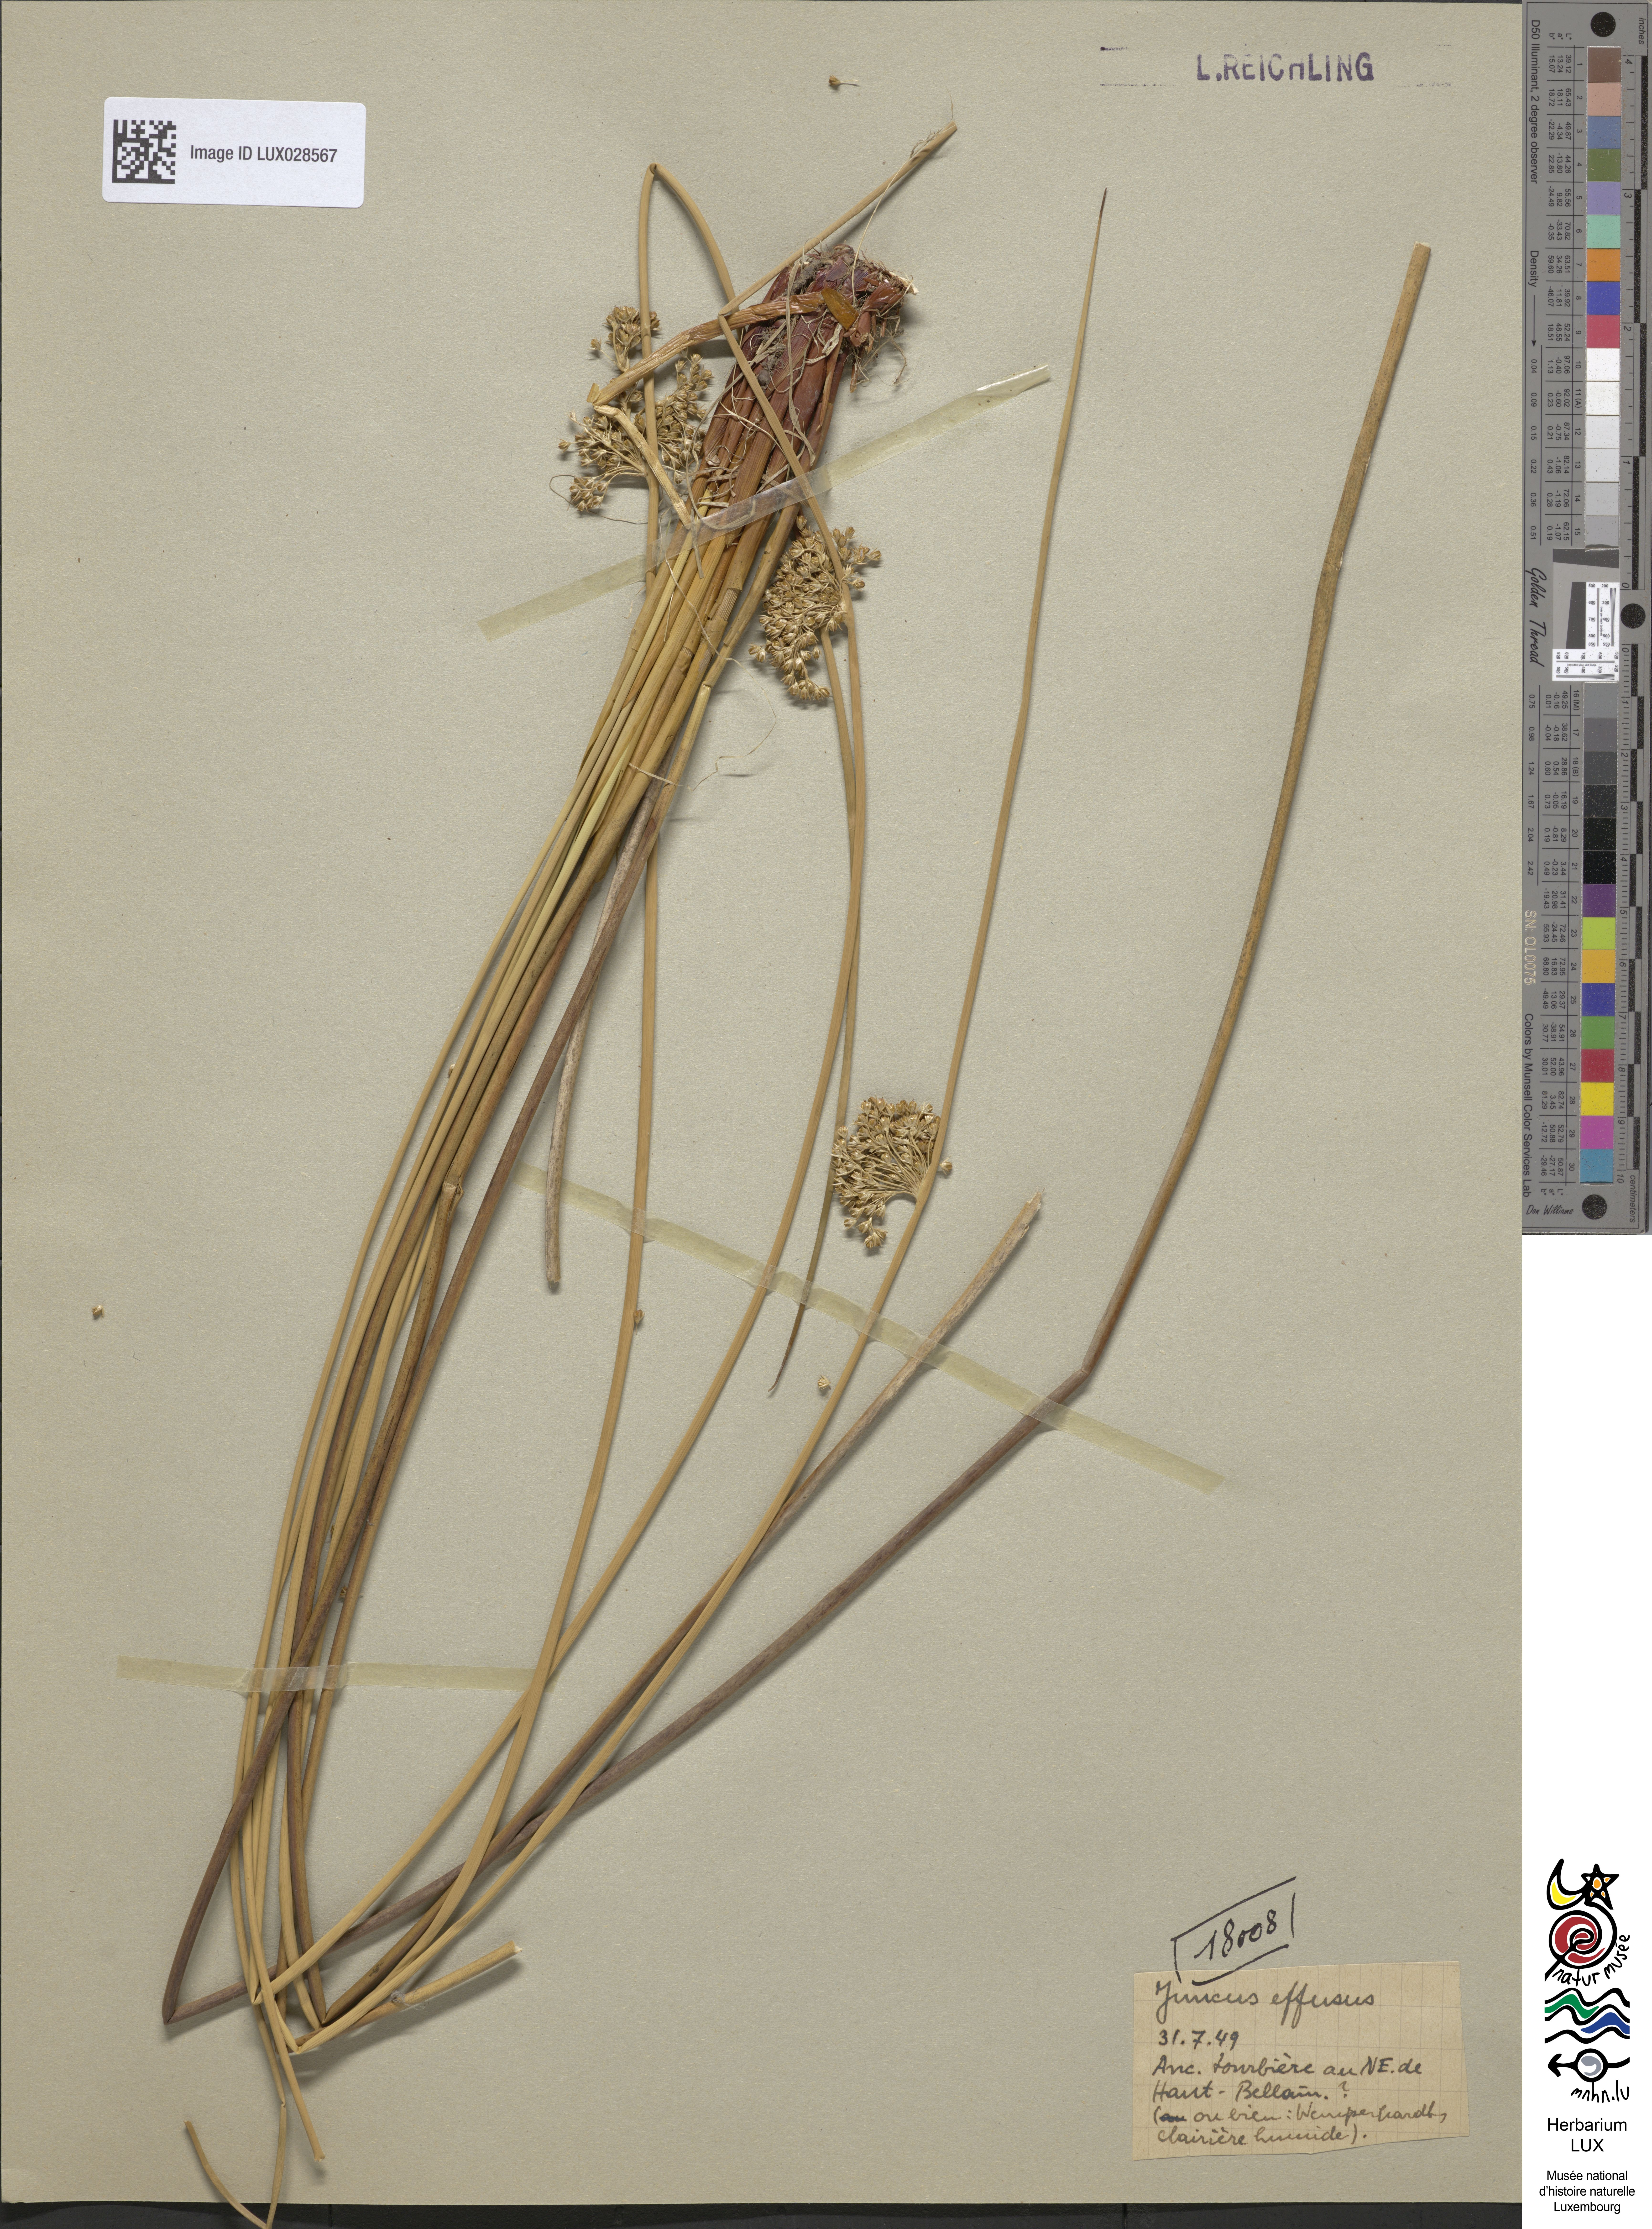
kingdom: Plantae
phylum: Tracheophyta
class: Liliopsida
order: Poales
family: Juncaceae
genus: Juncus
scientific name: Juncus effusus
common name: Soft rush
